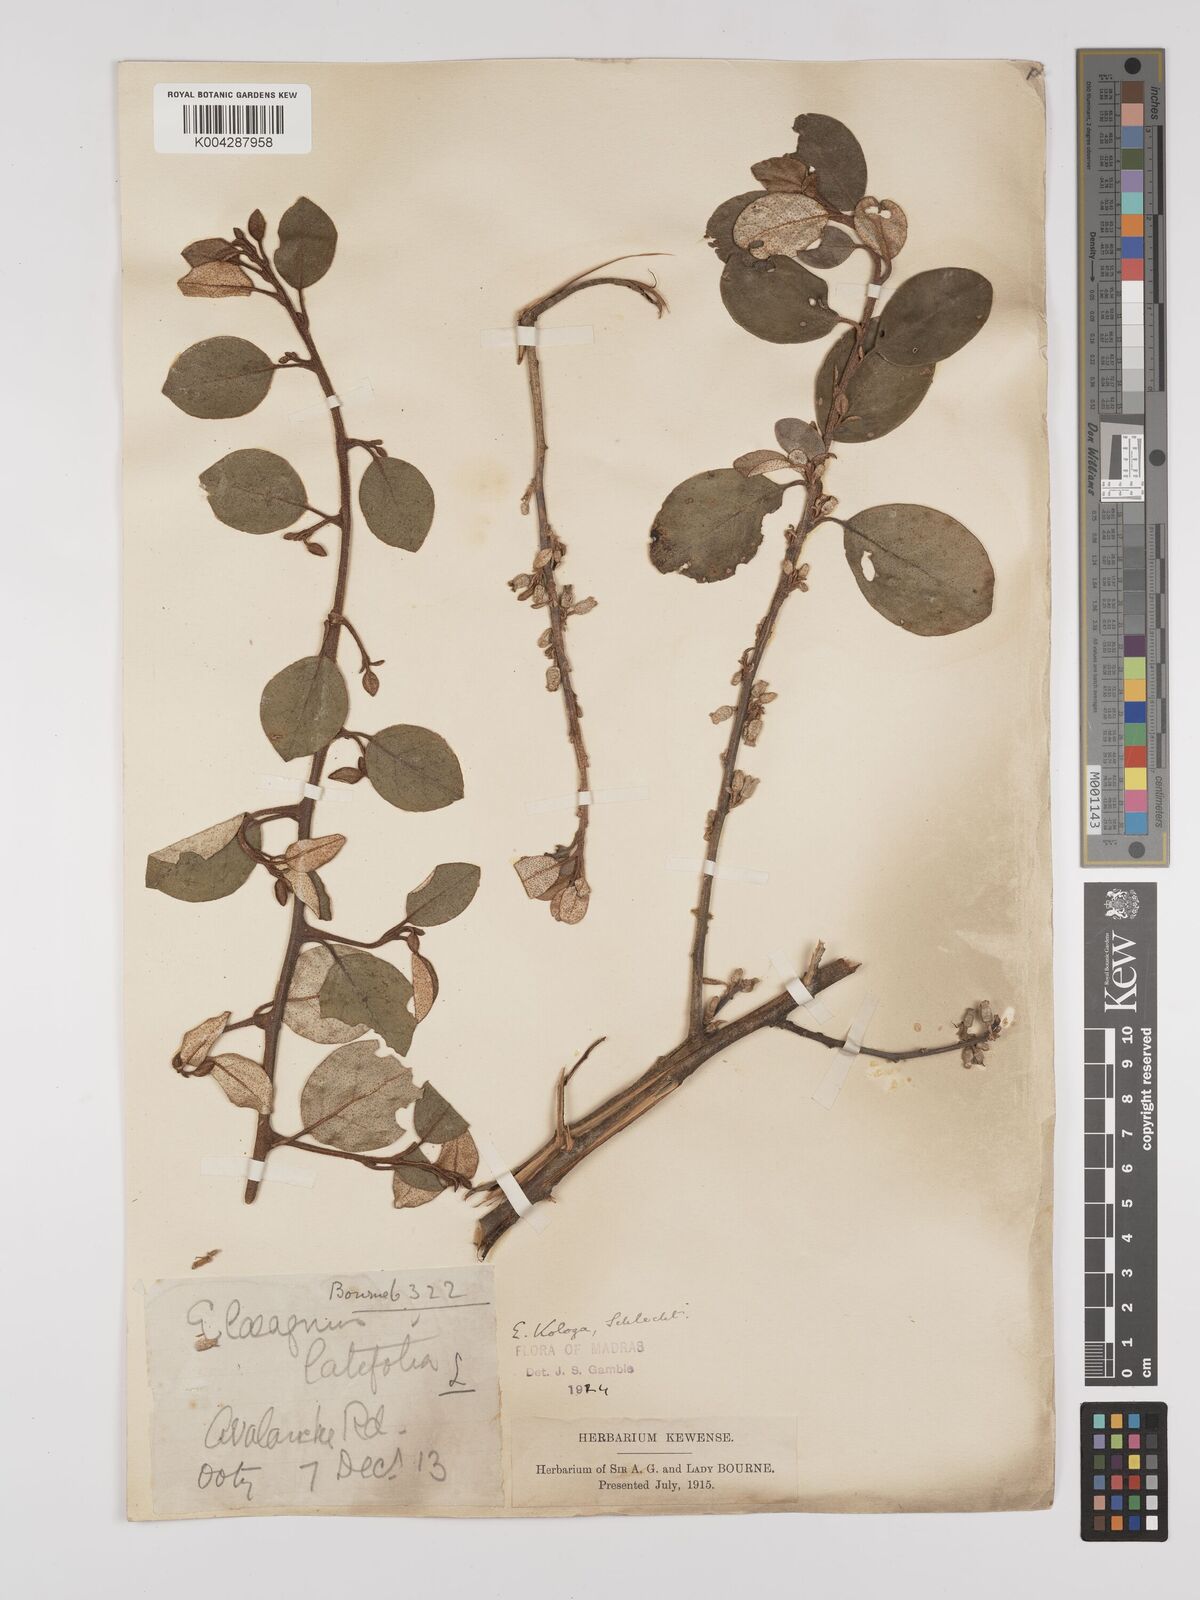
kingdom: Plantae
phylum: Tracheophyta
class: Magnoliopsida
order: Rosales
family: Elaeagnaceae
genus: Elaeagnus
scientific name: Elaeagnus latifolia
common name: Oleaster
